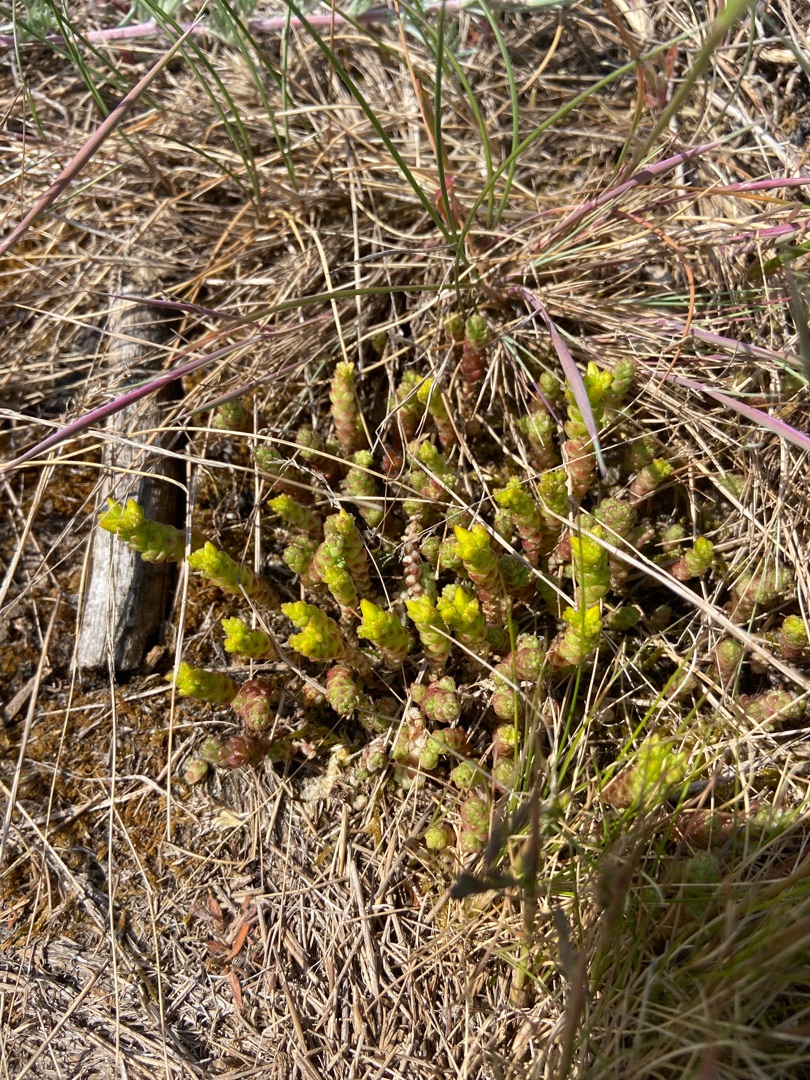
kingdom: Plantae
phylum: Tracheophyta
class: Magnoliopsida
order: Saxifragales
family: Crassulaceae
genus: Sedum
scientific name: Sedum acre
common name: Bidende stenurt
